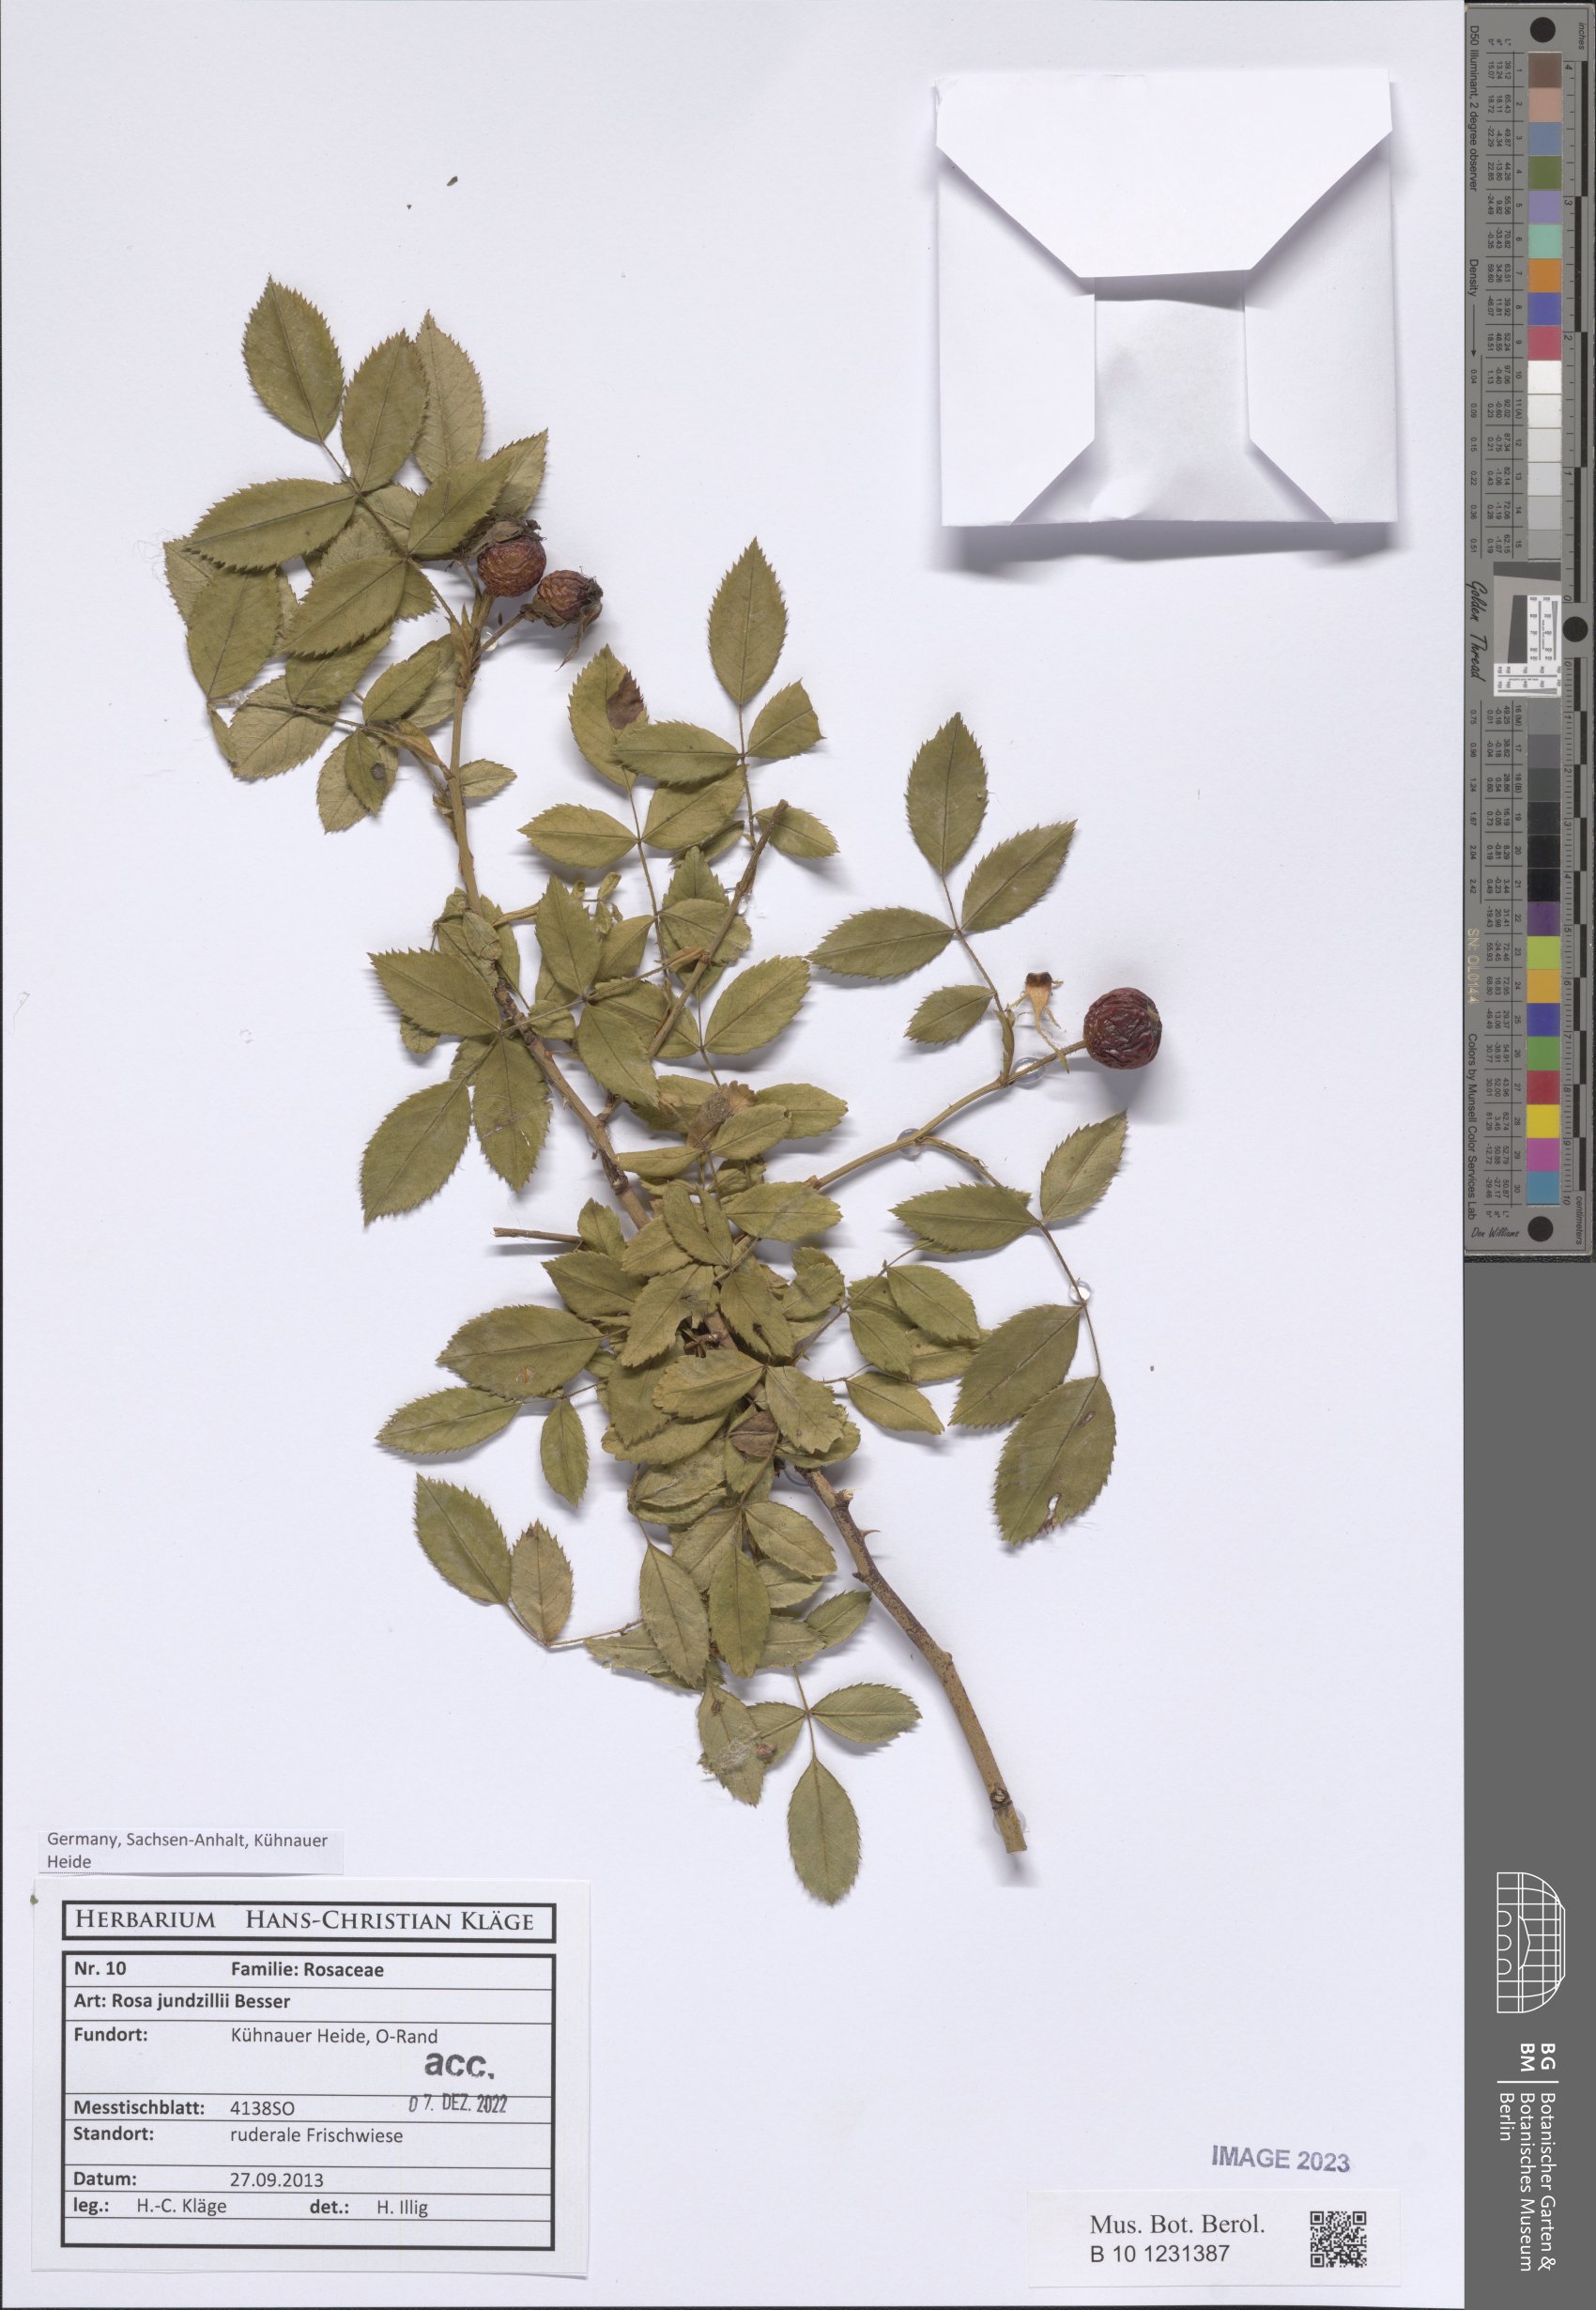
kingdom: Plantae
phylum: Tracheophyta
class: Magnoliopsida
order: Rosales
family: Rosaceae
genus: Rosa
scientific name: Rosa marginata
